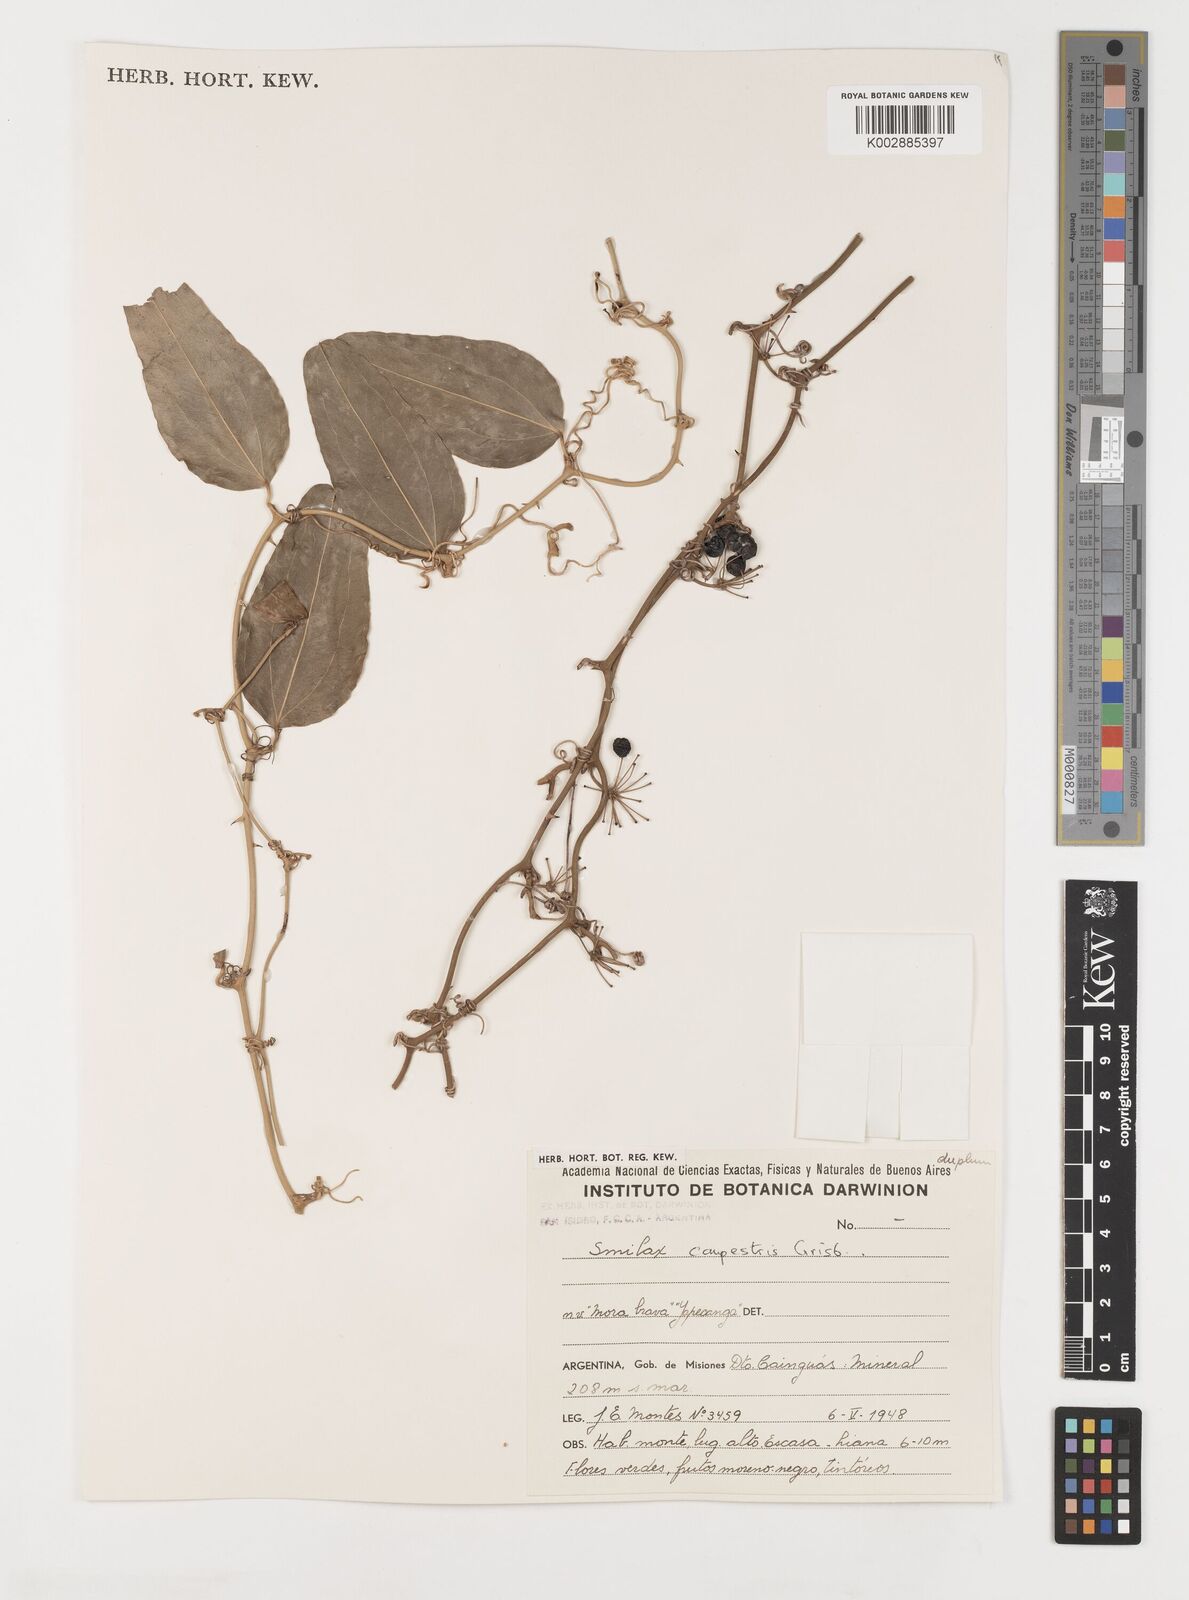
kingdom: Plantae
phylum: Tracheophyta
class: Liliopsida
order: Liliales
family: Smilacaceae
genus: Smilax
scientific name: Smilax campestris
